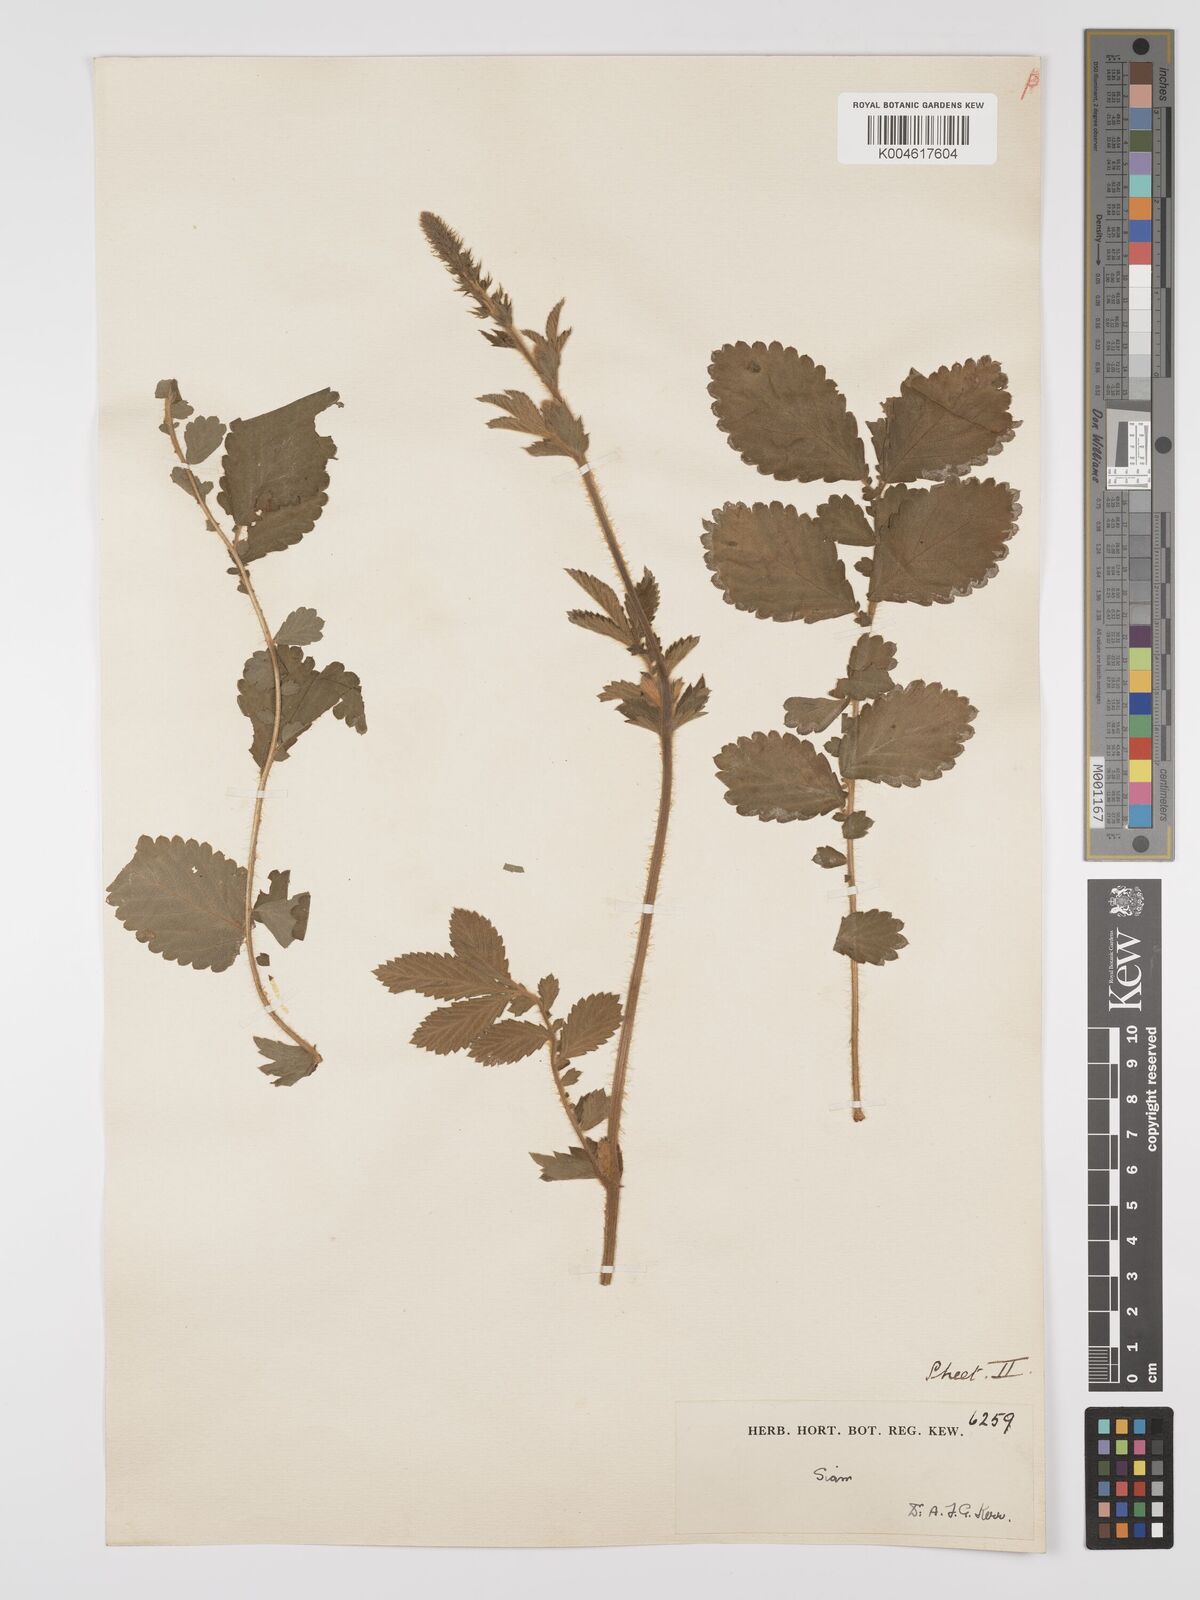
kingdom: Plantae
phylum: Tracheophyta
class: Magnoliopsida
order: Rosales
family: Rosaceae
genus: Agrimonia
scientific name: Agrimonia eupatoria
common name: Agrimony
